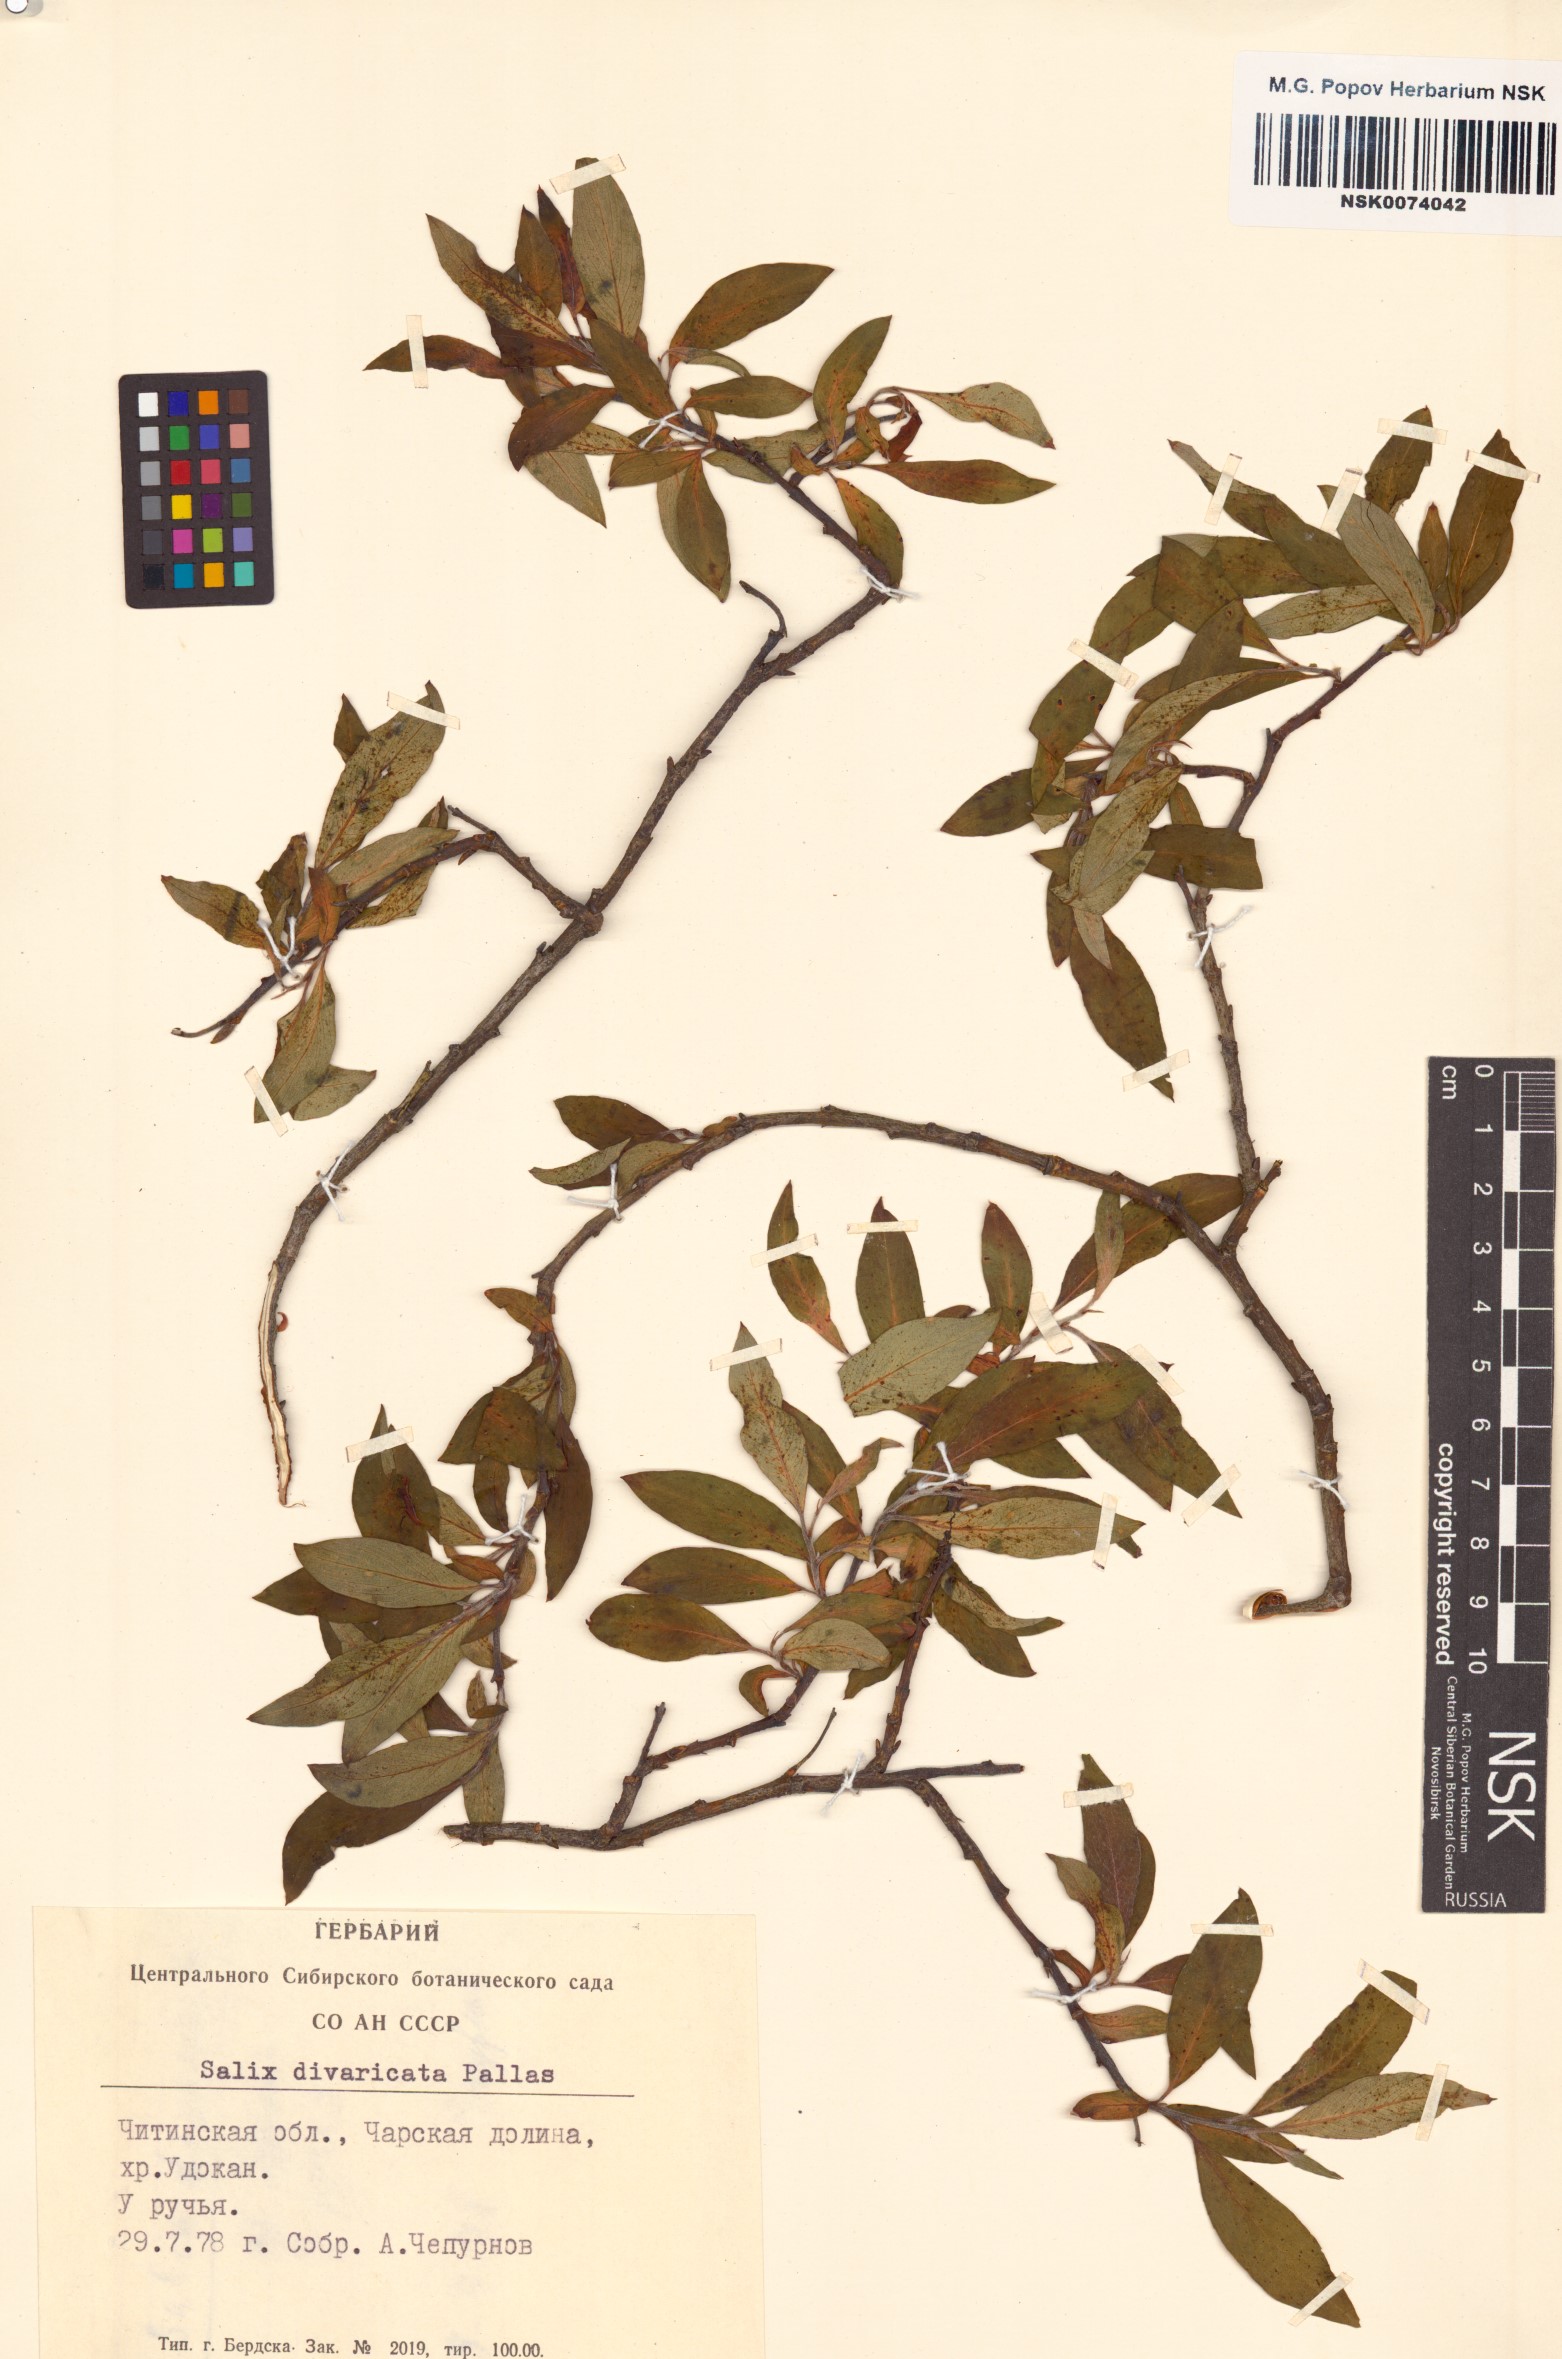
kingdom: Plantae
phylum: Tracheophyta
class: Magnoliopsida
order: Malpighiales
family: Salicaceae
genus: Salix
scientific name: Salix divaricata
